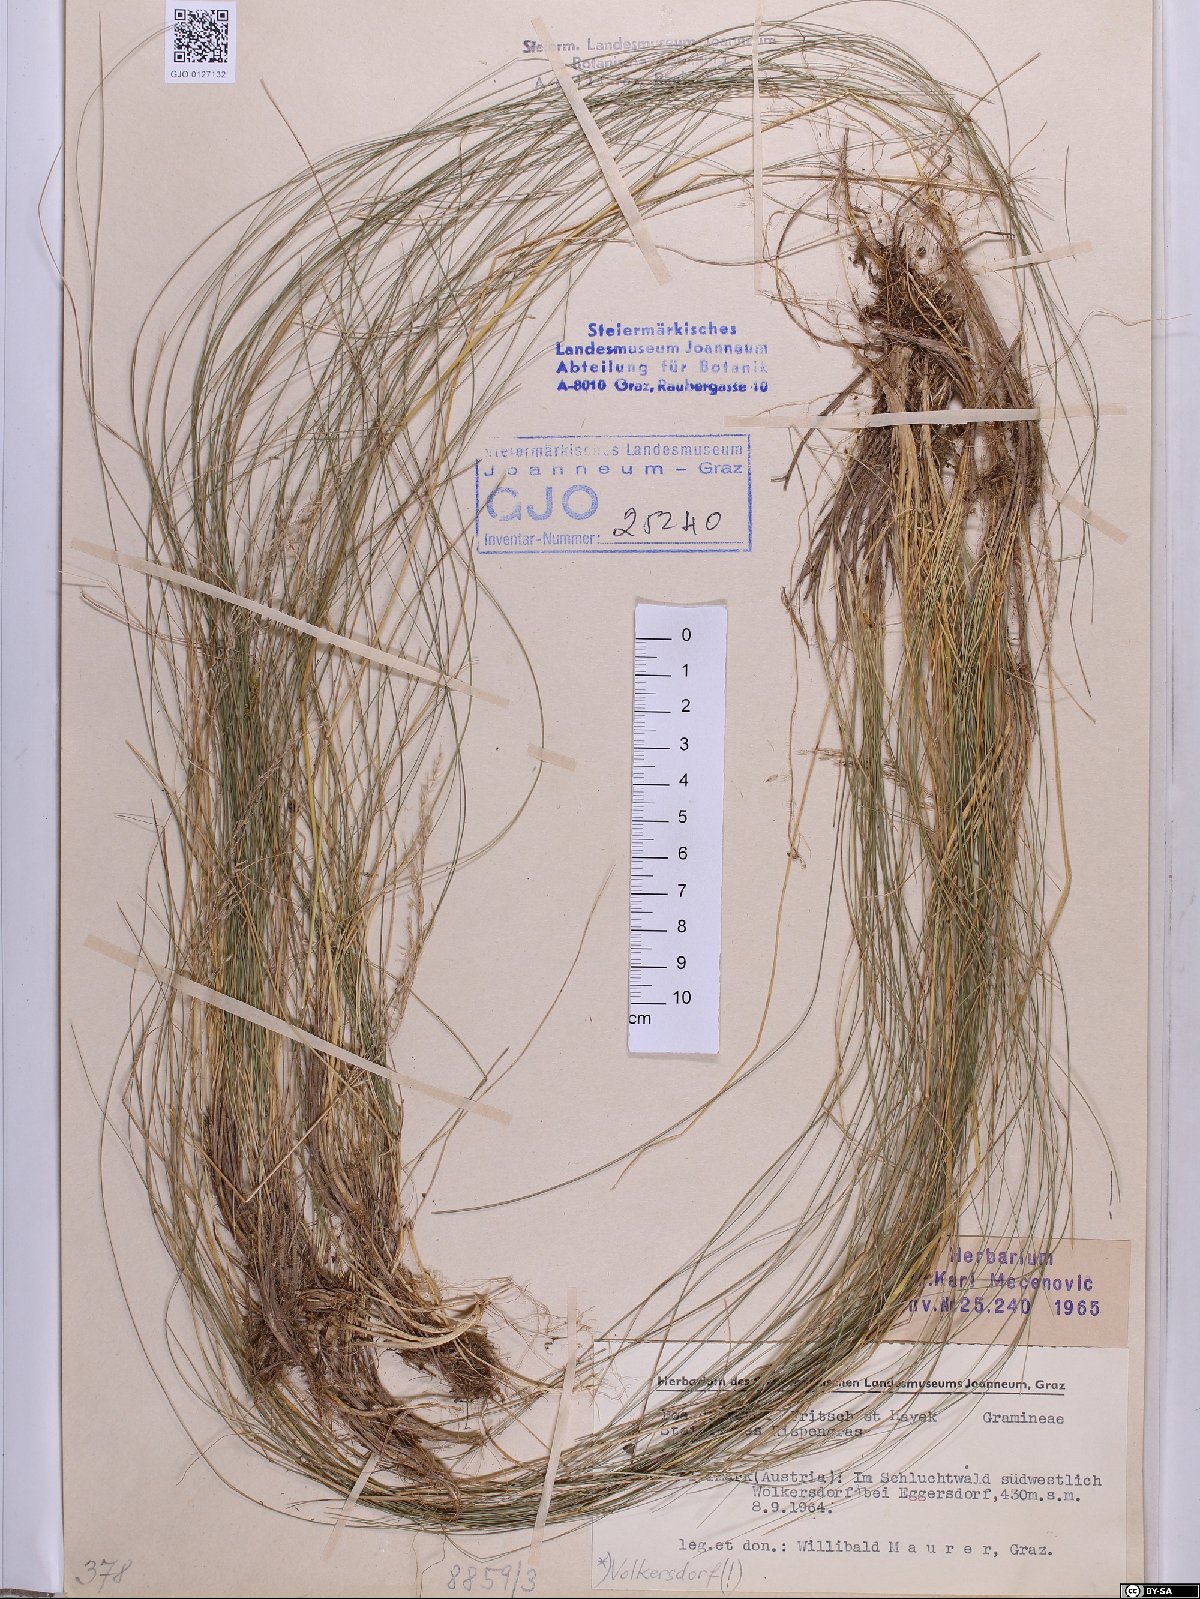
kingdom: Plantae
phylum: Tracheophyta
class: Liliopsida
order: Poales
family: Poaceae
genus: Poa
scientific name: Poa stiriaca
